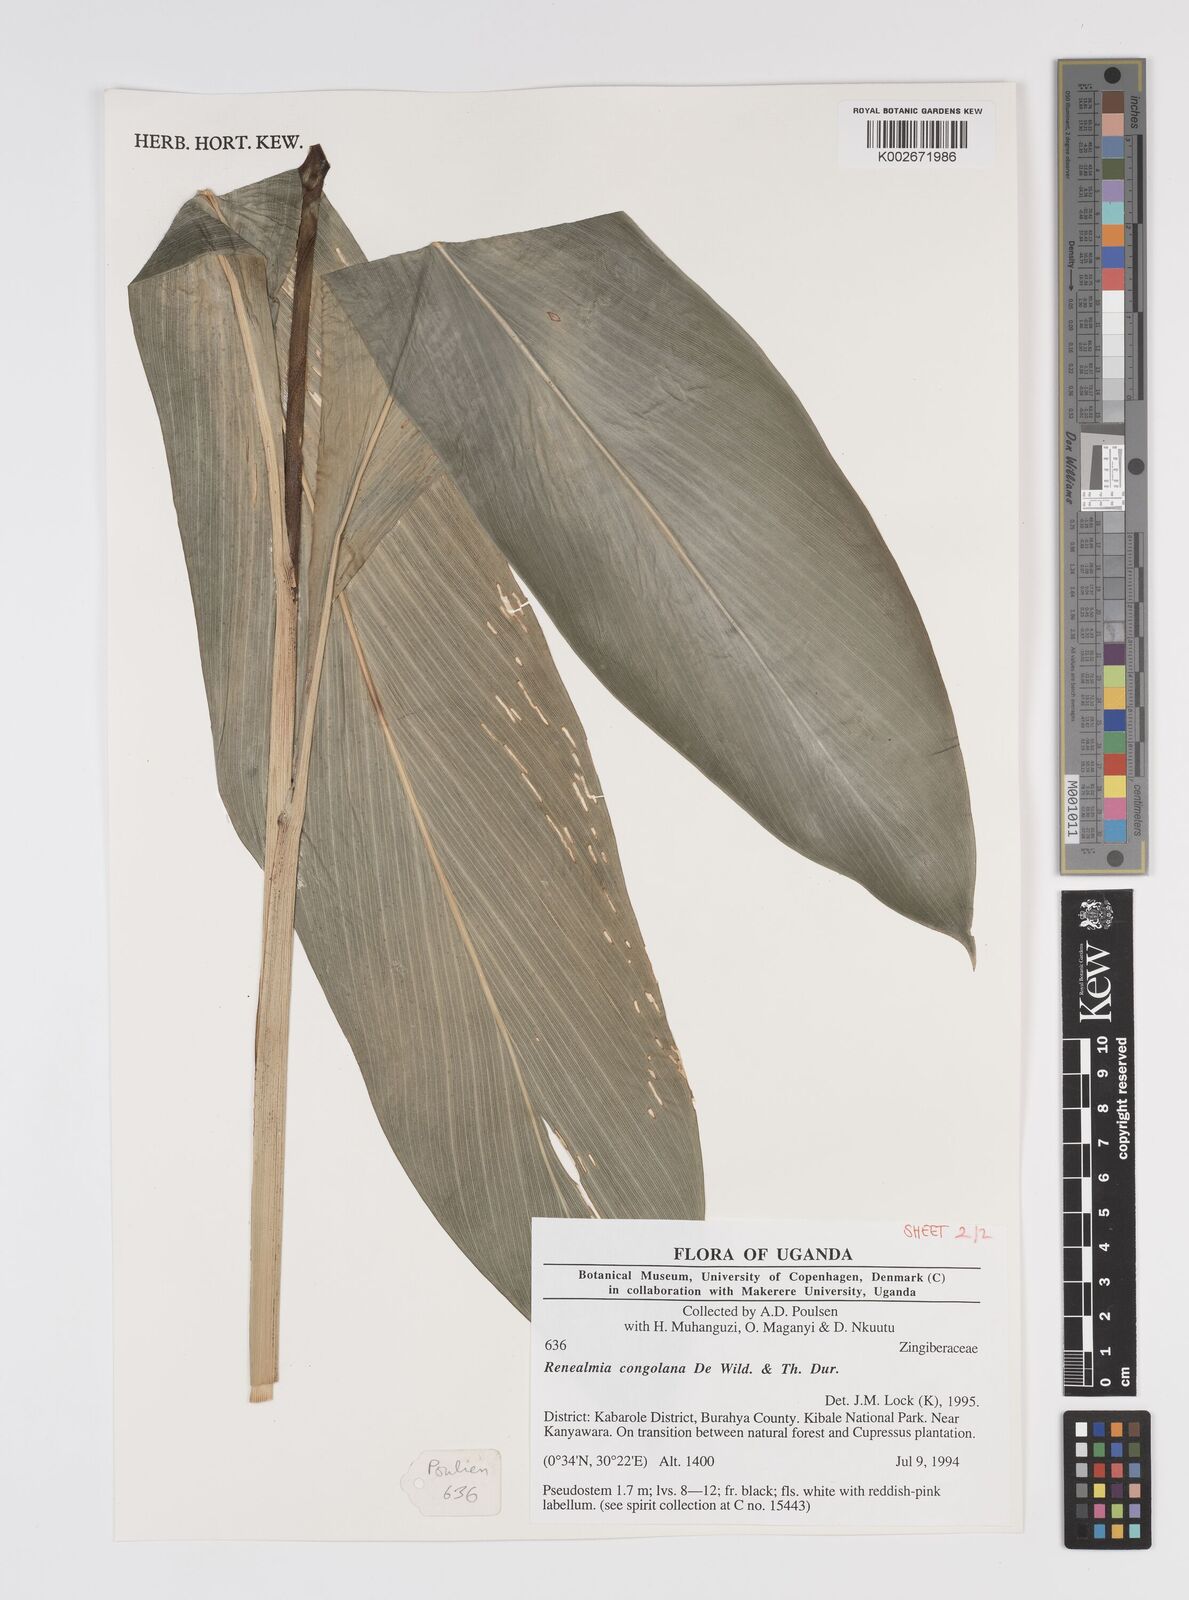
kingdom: Plantae
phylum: Tracheophyta
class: Liliopsida
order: Zingiberales
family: Zingiberaceae
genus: Renealmia
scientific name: Renealmia congolana
